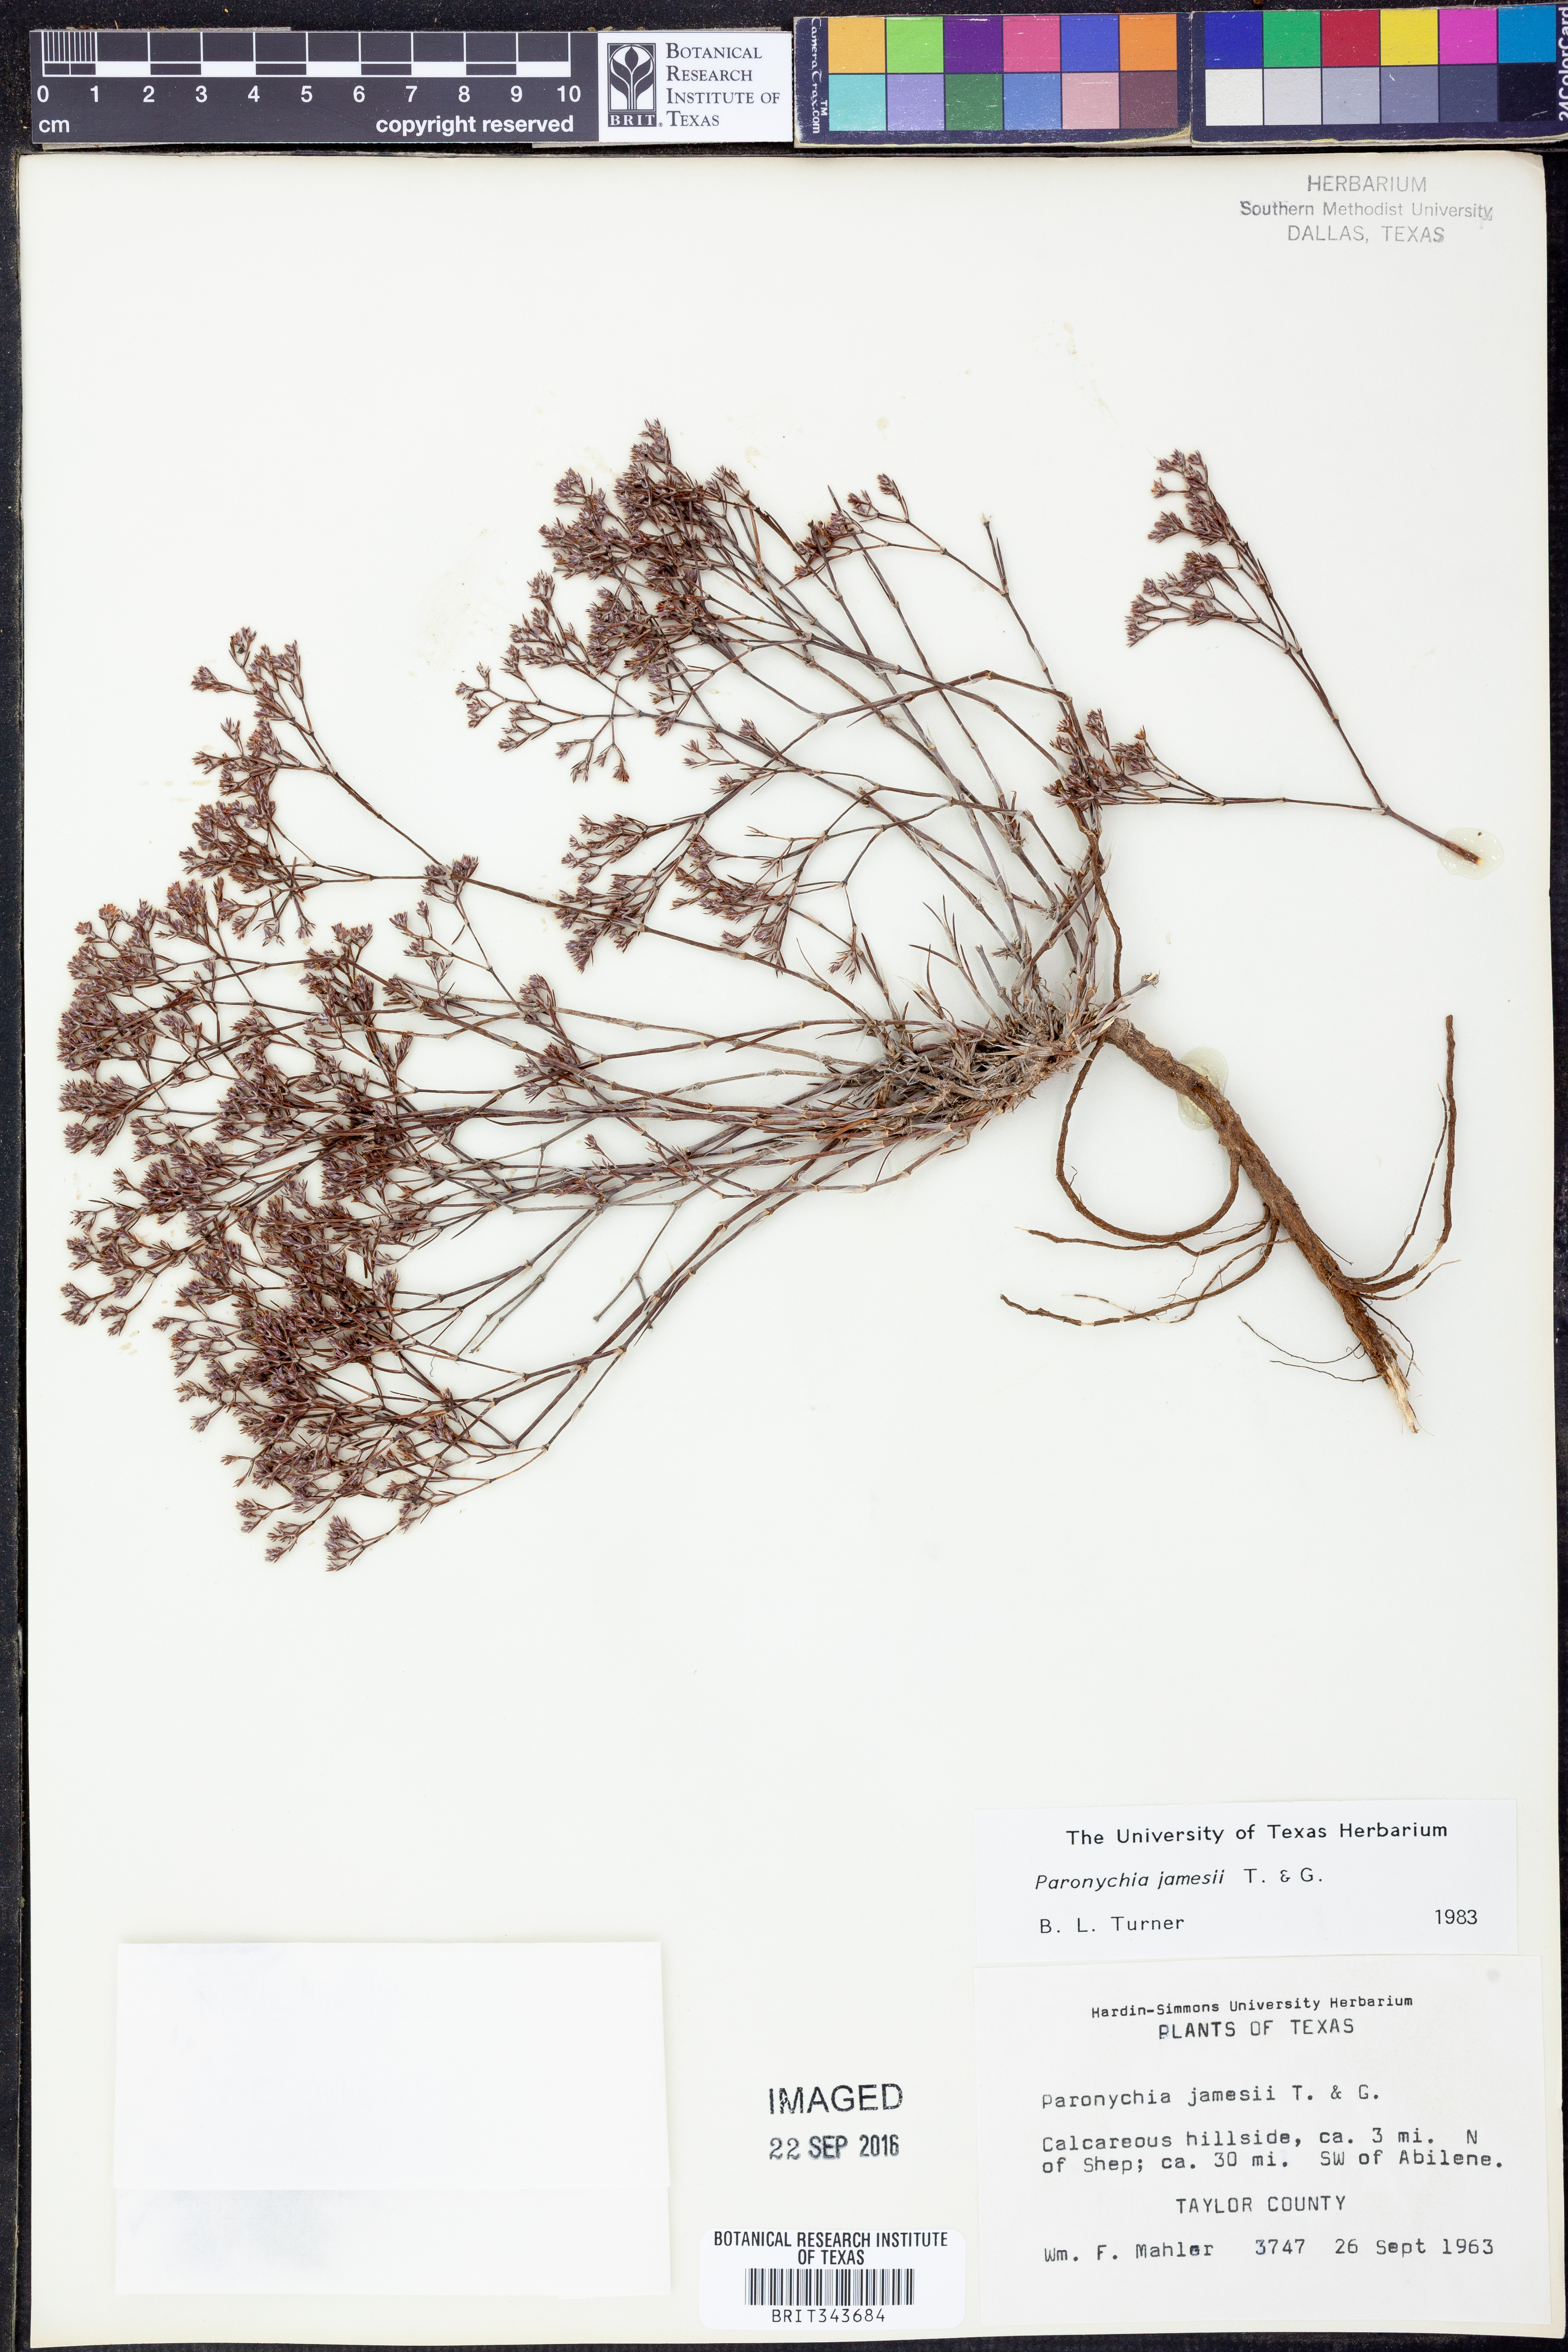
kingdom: Plantae
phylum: Tracheophyta
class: Magnoliopsida
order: Caryophyllales
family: Caryophyllaceae
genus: Paronychia
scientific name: Paronychia jamesii
